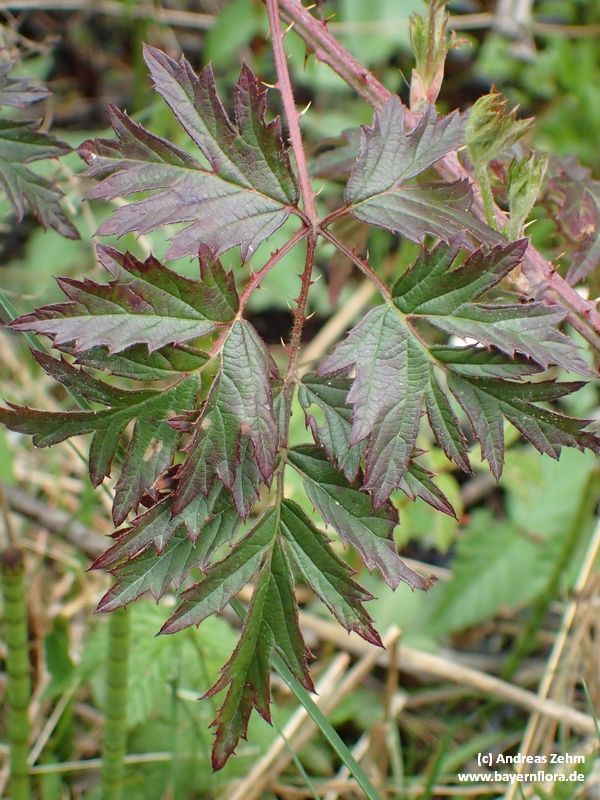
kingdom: Plantae
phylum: Tracheophyta
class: Magnoliopsida
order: Rosales
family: Rosaceae
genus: Rubus
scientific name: Rubus laciniatus
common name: Evergreen blackberry
